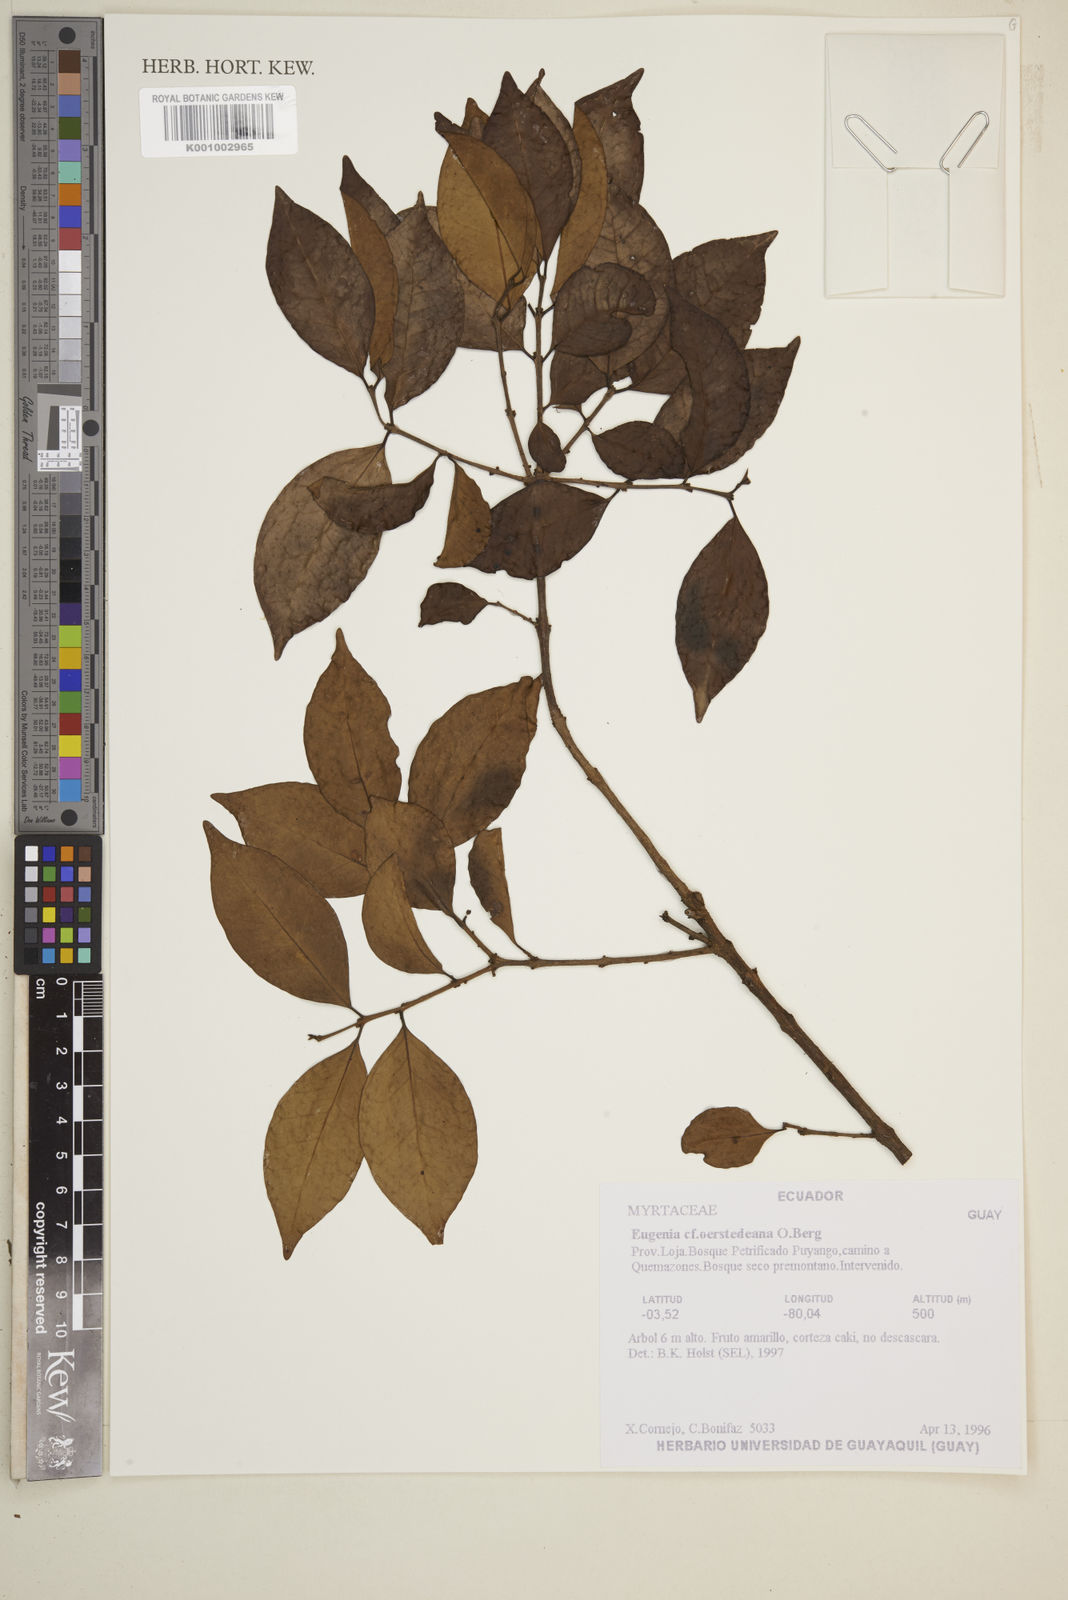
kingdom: Plantae
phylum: Tracheophyta
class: Magnoliopsida
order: Myrtales
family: Myrtaceae
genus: Eugenia
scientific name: Eugenia oerstediana
